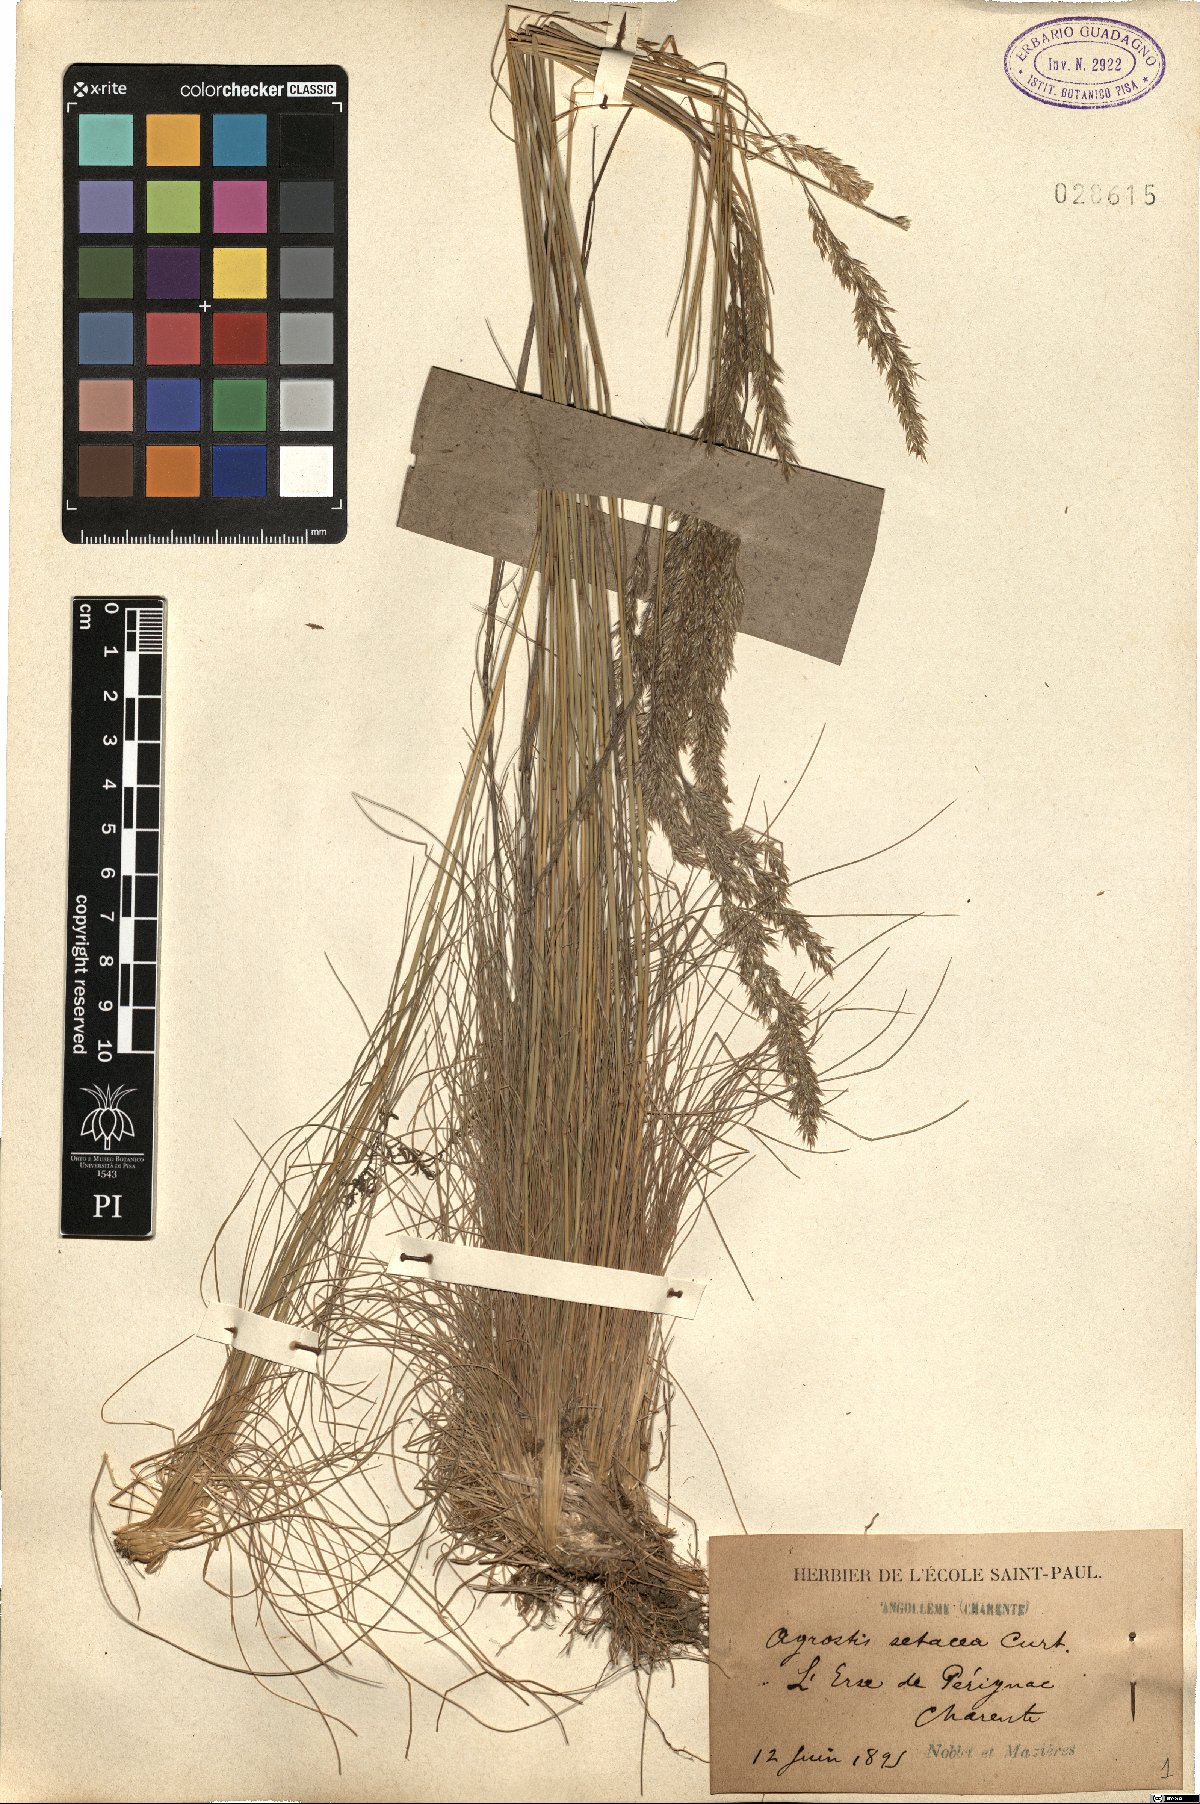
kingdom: Plantae
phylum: Tracheophyta
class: Liliopsida
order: Poales
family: Poaceae
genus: Alpagrostis
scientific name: Alpagrostis setacea
